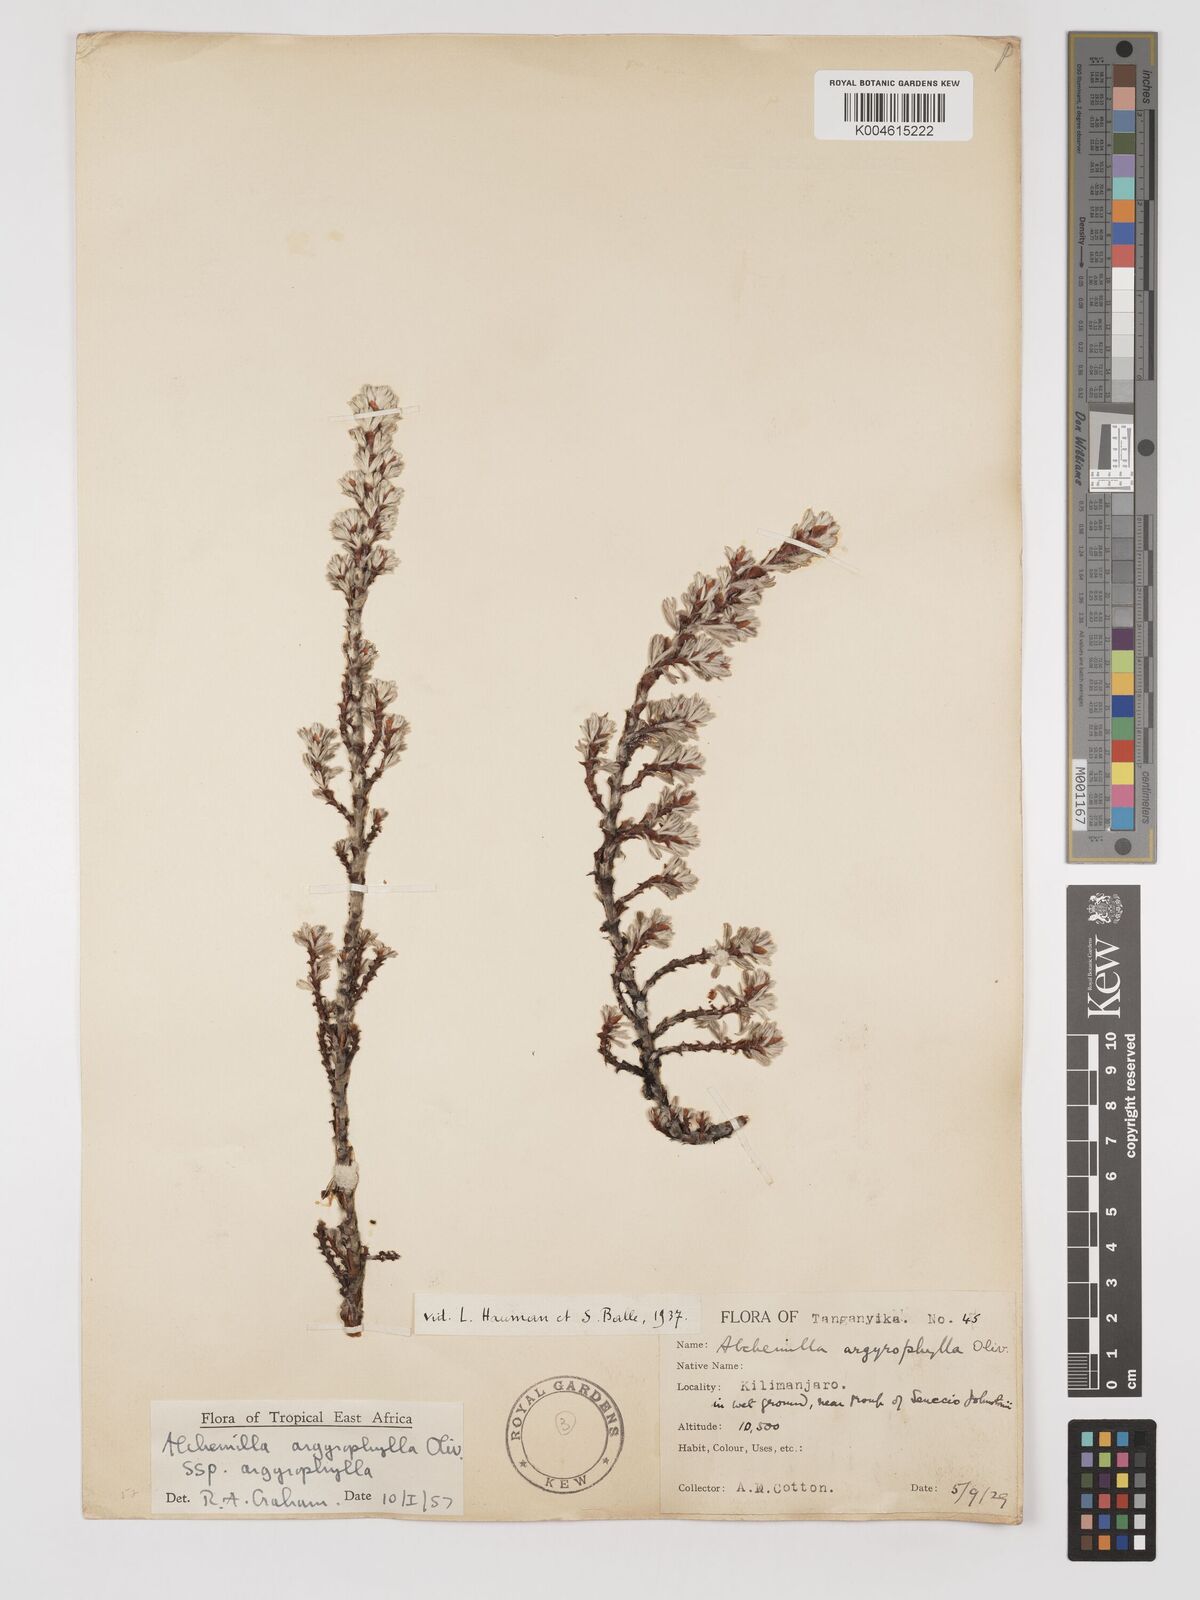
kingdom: Plantae
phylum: Tracheophyta
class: Magnoliopsida
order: Rosales
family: Rosaceae
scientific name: Rosaceae
